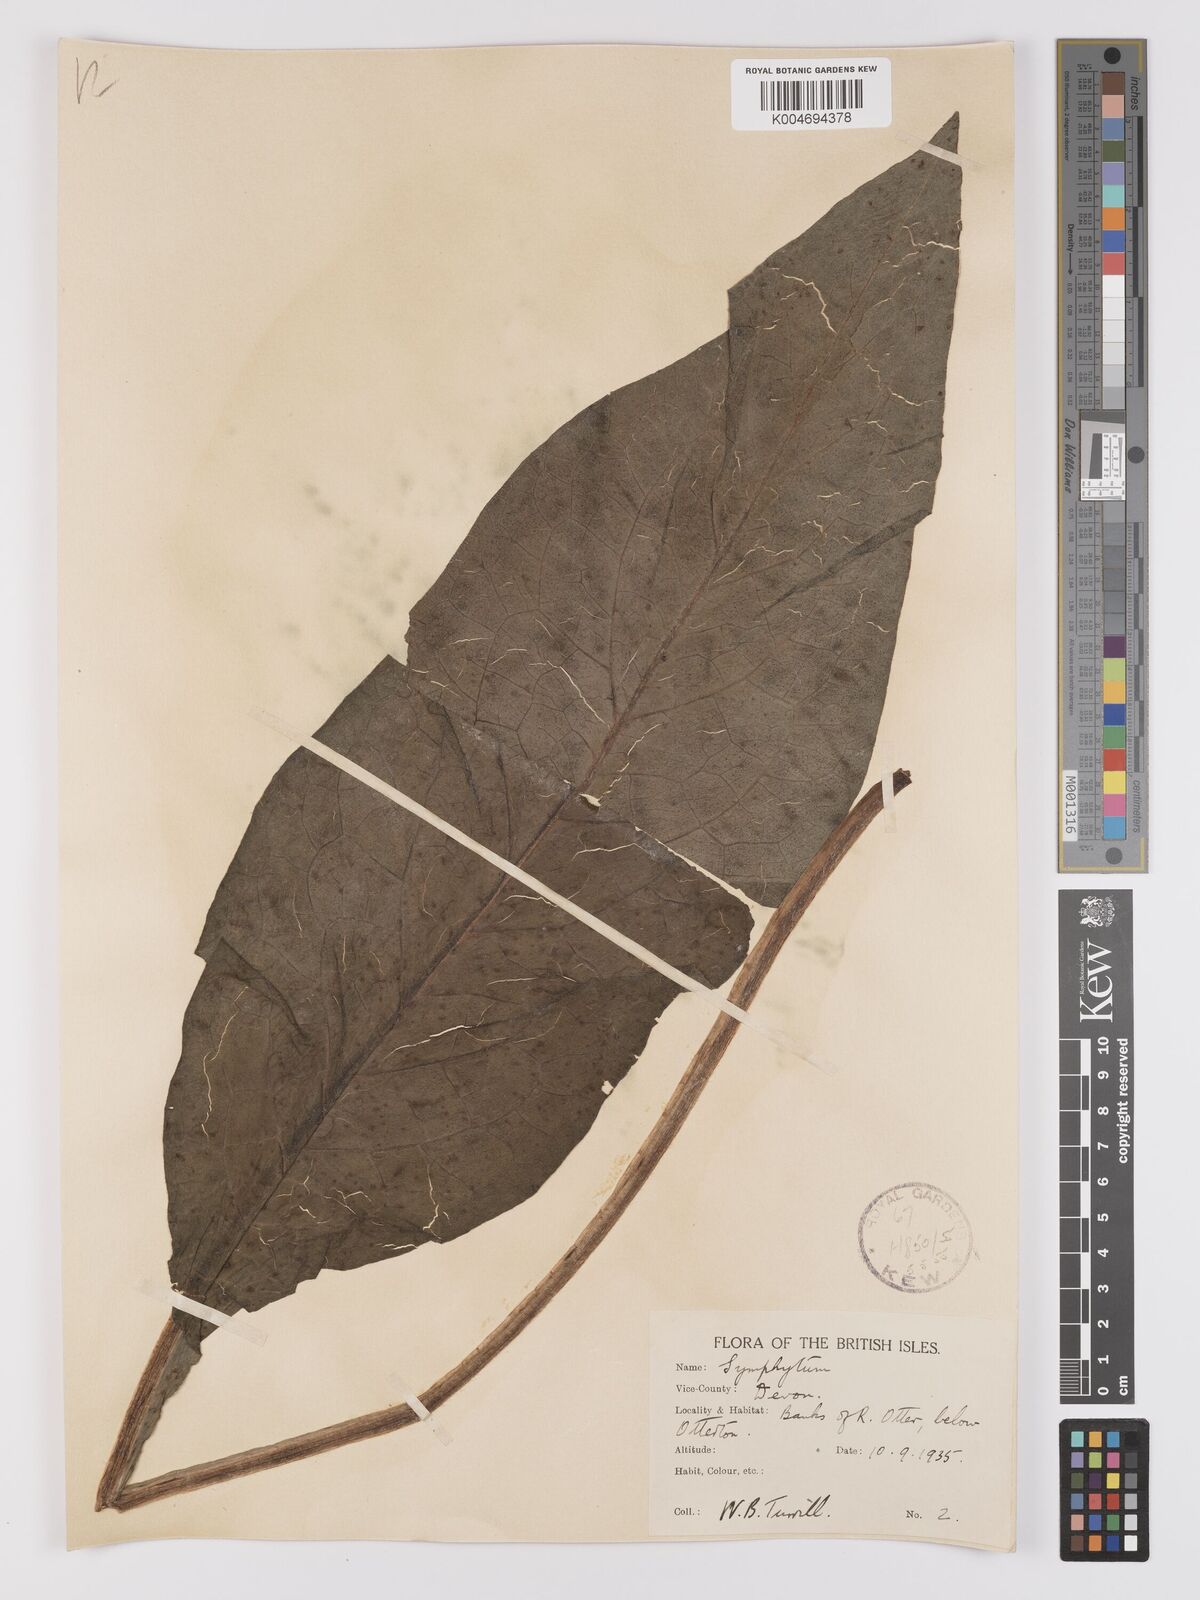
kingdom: Plantae
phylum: Tracheophyta
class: Magnoliopsida
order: Boraginales
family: Boraginaceae
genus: Symphytum
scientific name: Symphytum officinale
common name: Common comfrey
